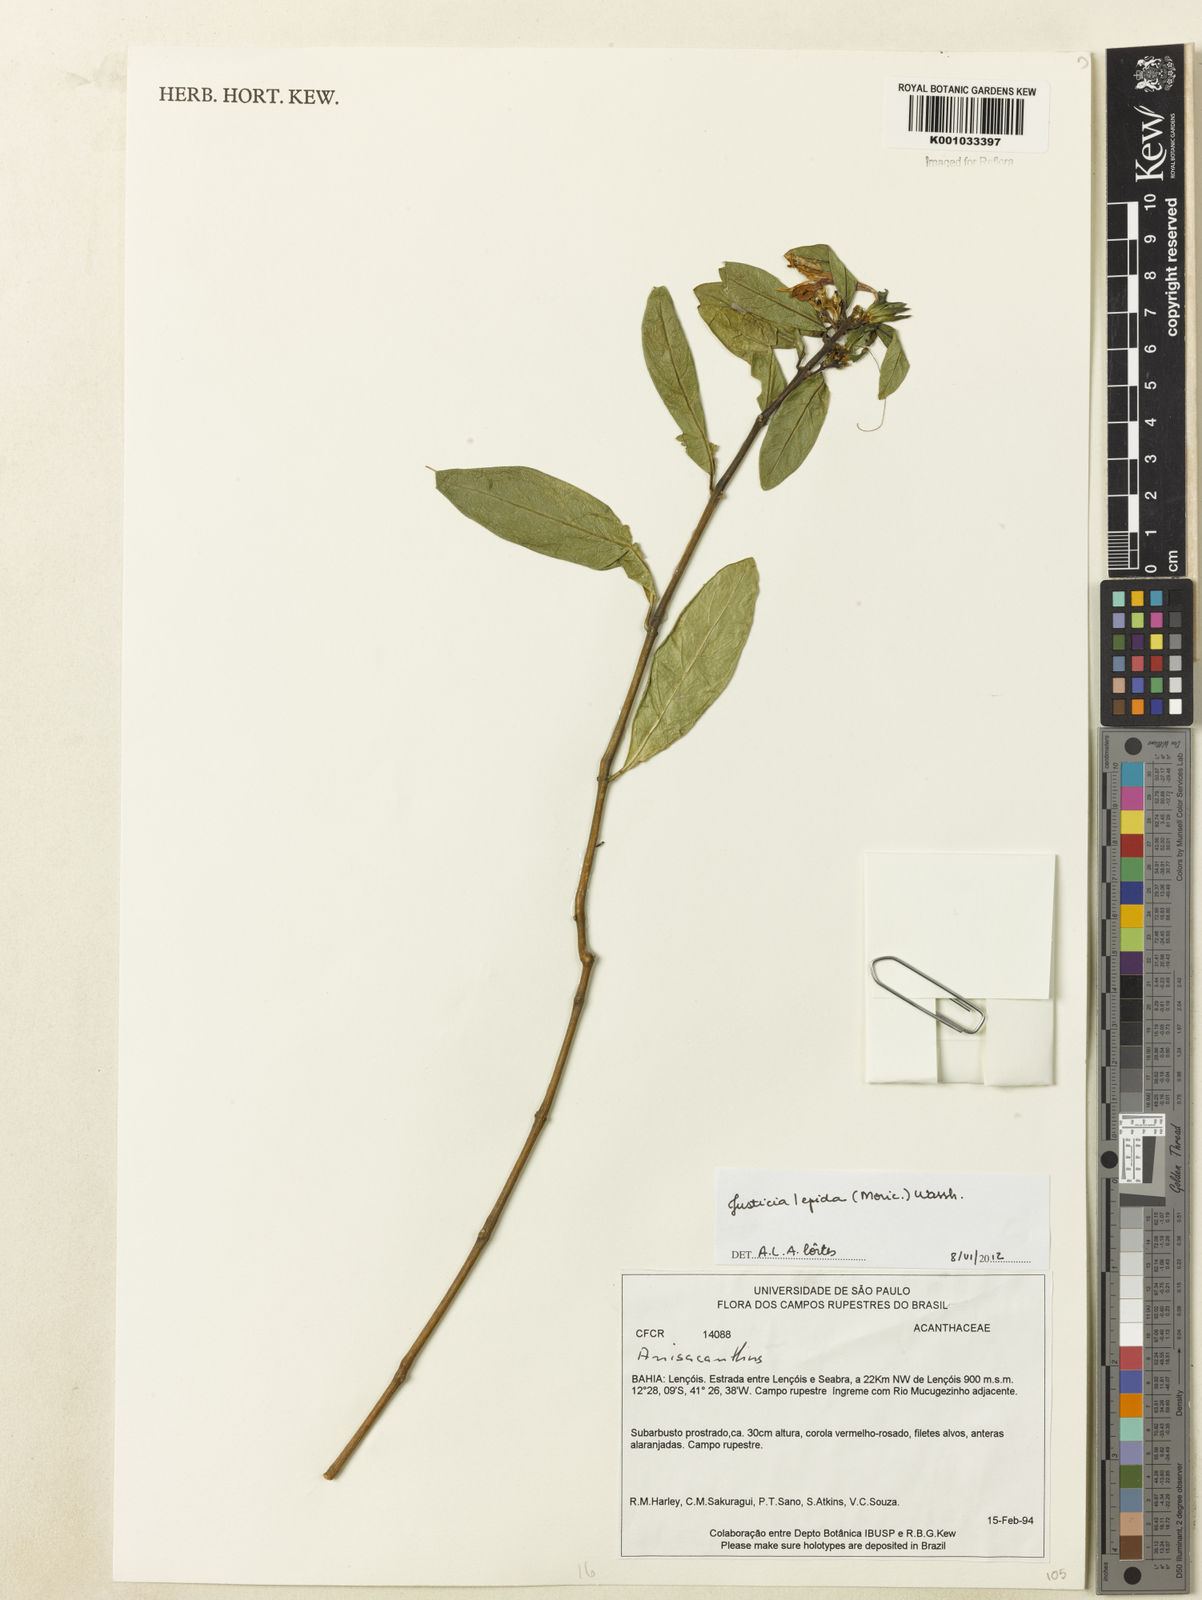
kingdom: Plantae
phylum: Tracheophyta
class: Magnoliopsida
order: Lamiales
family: Acanthaceae
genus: Justicia
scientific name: Justicia lepida
